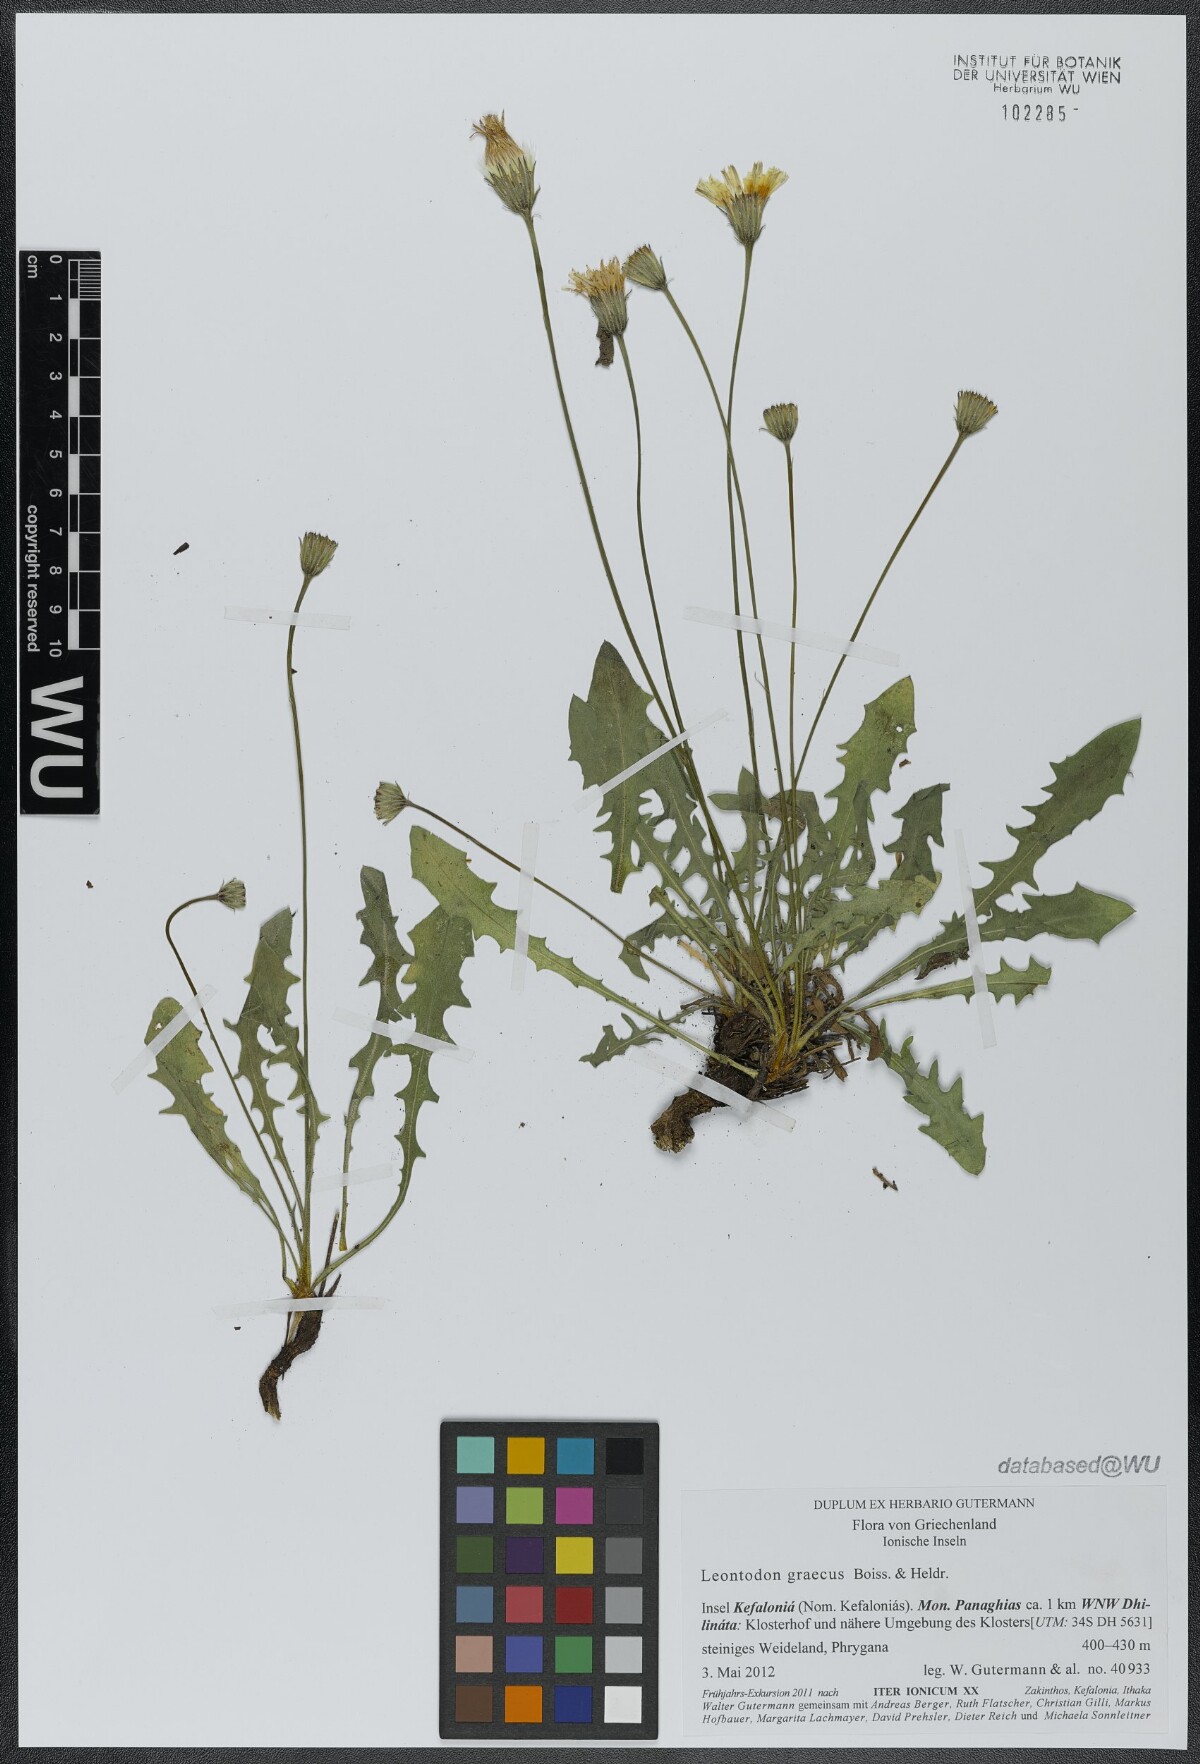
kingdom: Plantae
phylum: Tracheophyta
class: Magnoliopsida
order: Asterales
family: Asteraceae
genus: Leontodon
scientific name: Leontodon graecus
